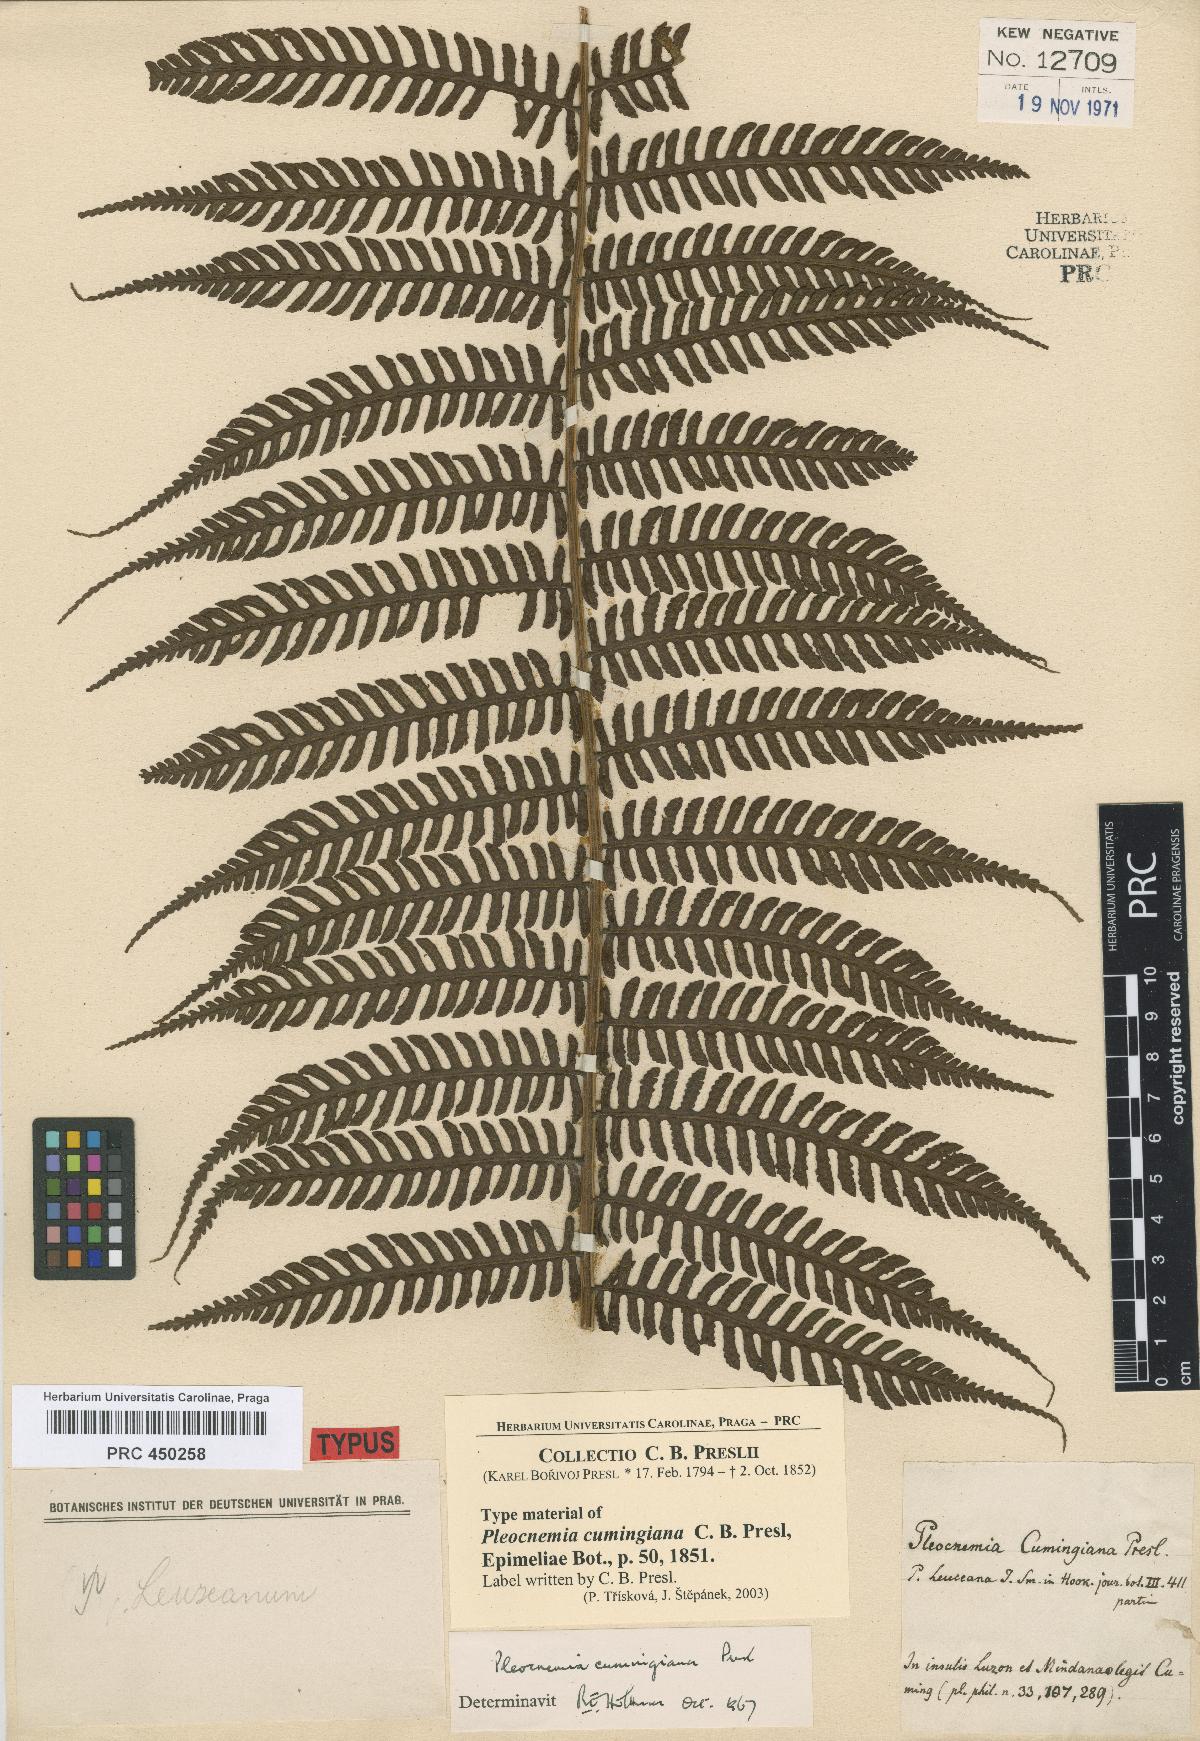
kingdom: Plantae
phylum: Tracheophyta
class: Polypodiopsida
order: Polypodiales
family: Dryopteridaceae
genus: Pleocnemia
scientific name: Pleocnemia cumingiana
